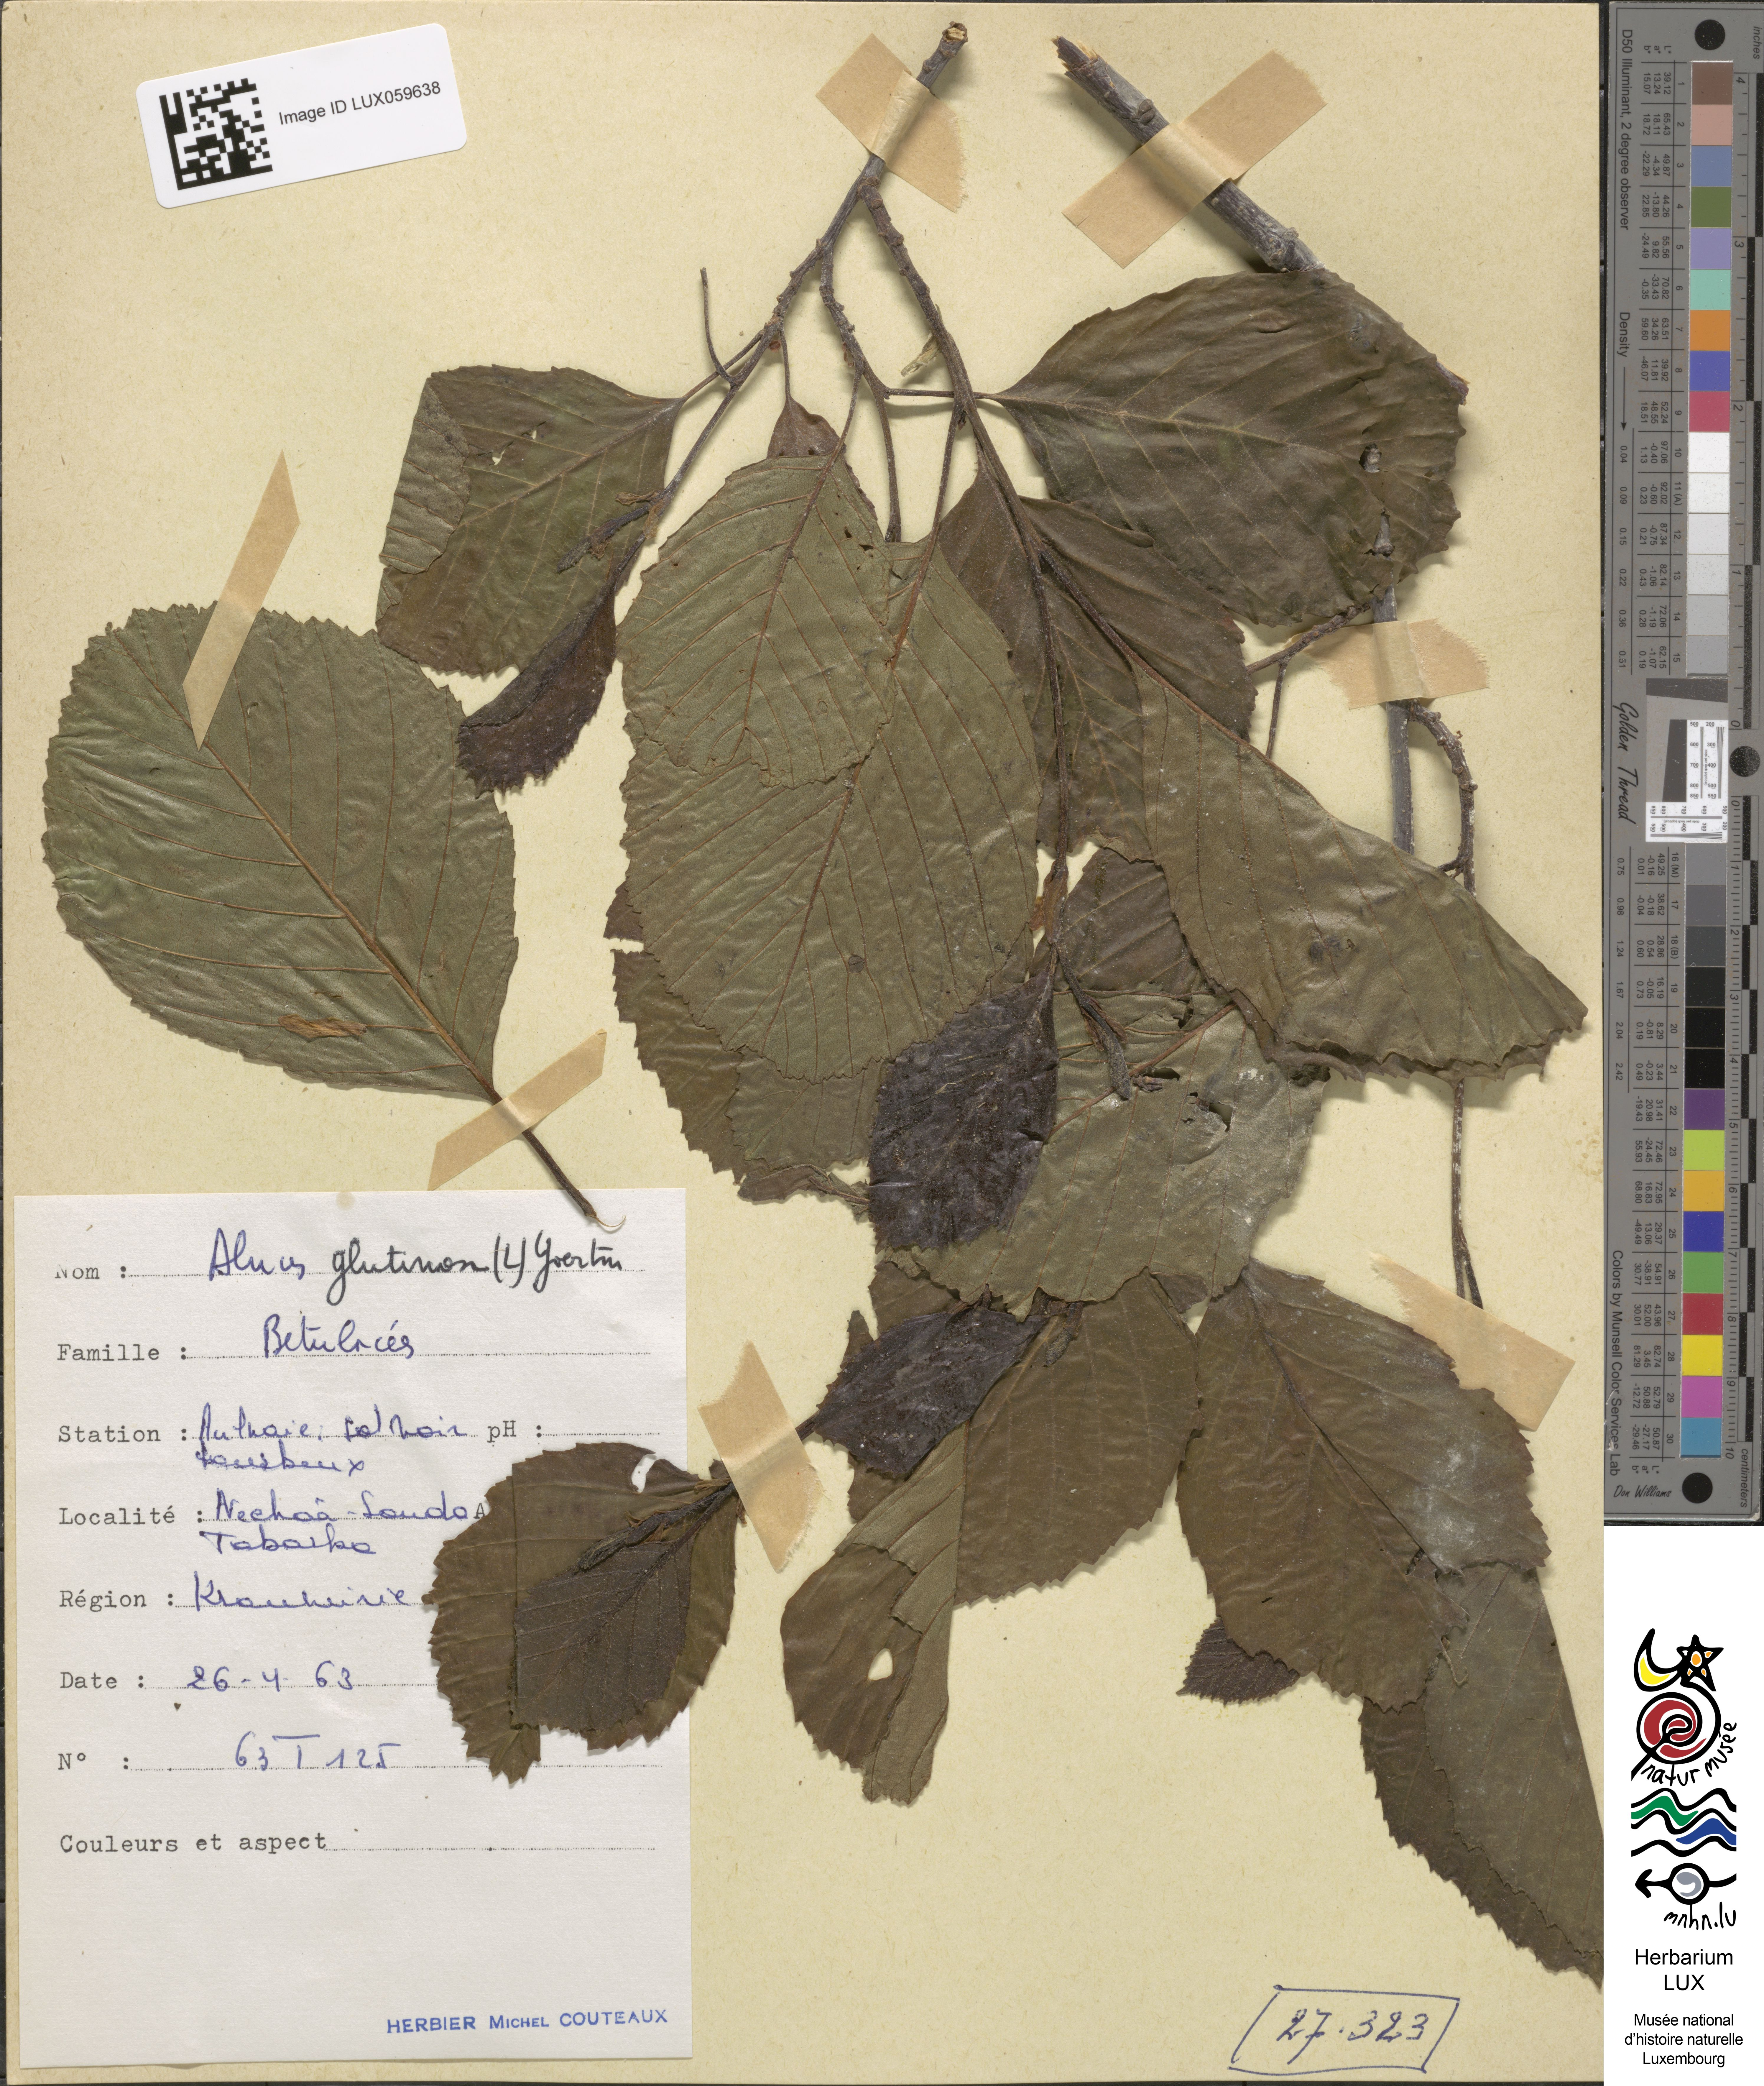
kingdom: Plantae
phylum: Tracheophyta
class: Magnoliopsida
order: Fagales
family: Betulaceae
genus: Alnus
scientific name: Alnus glutinosa
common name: Black alder
